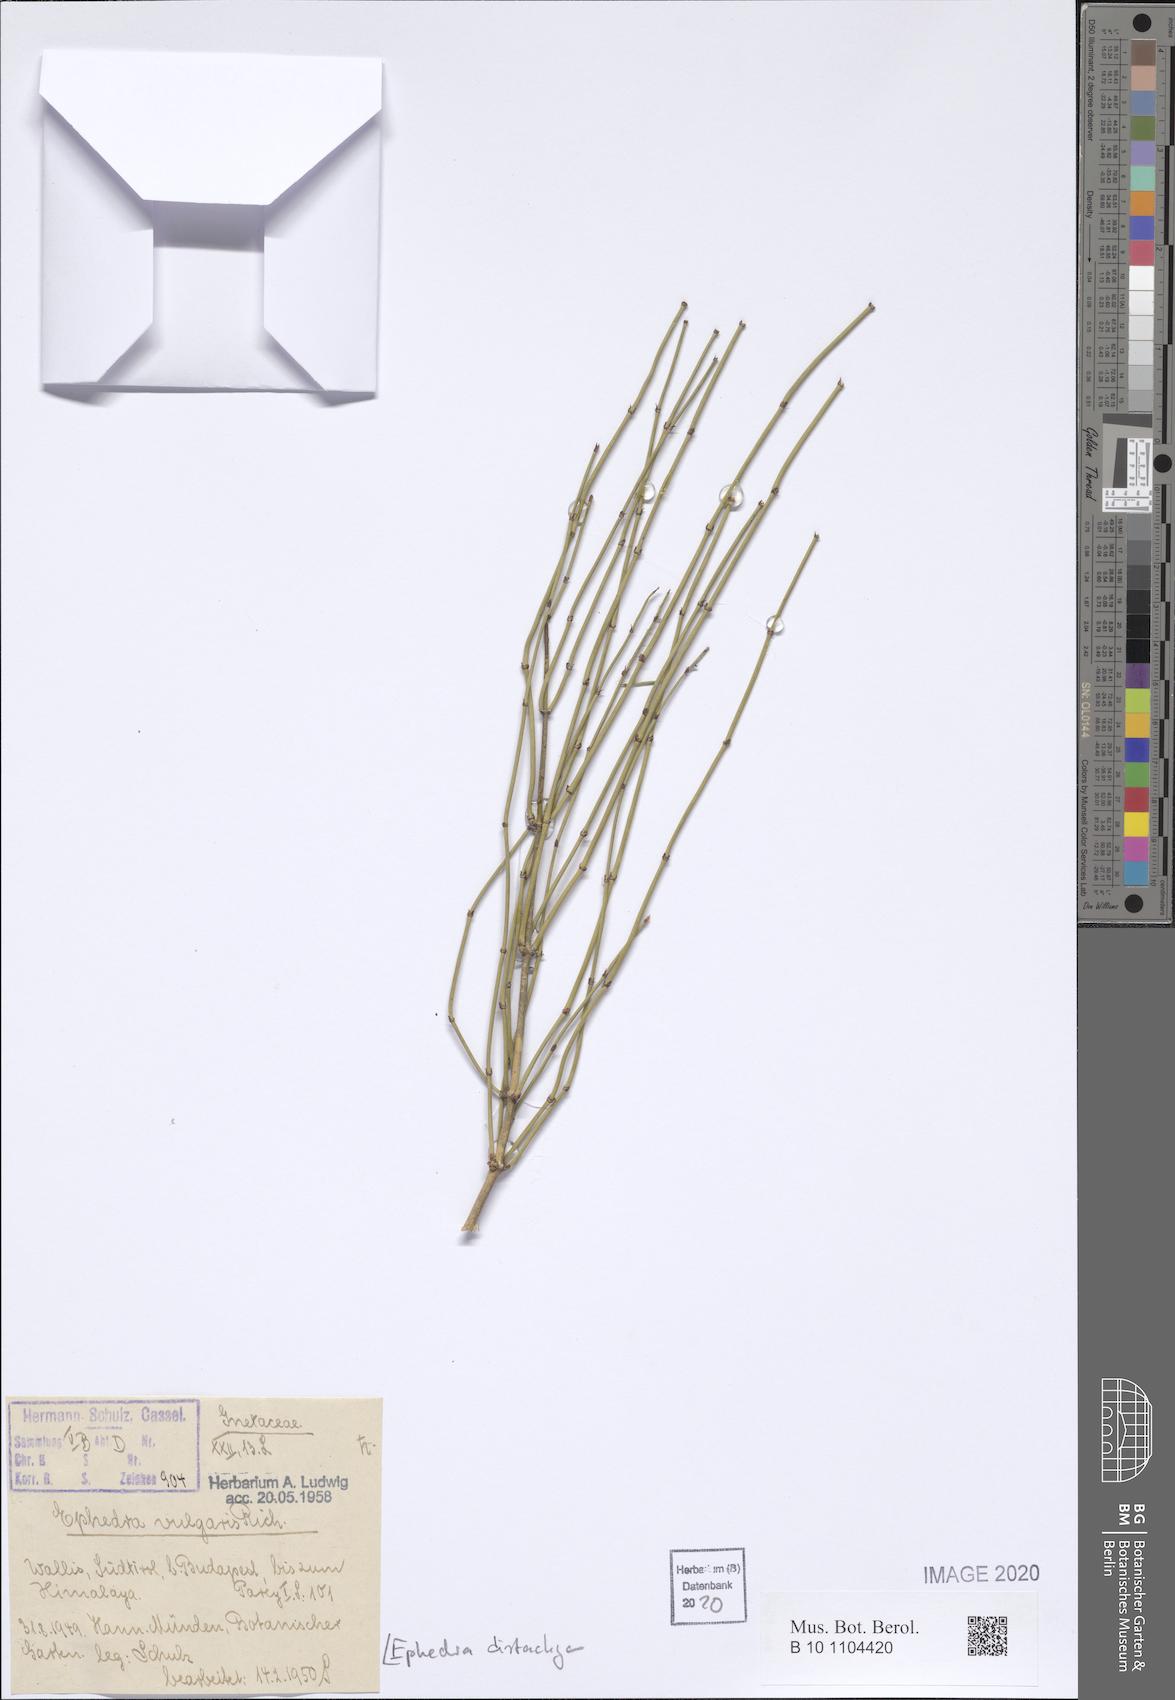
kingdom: Plantae
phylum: Tracheophyta
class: Gnetopsida
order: Ephedrales
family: Ephedraceae
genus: Ephedra
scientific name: Ephedra distachya
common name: Sea grape
